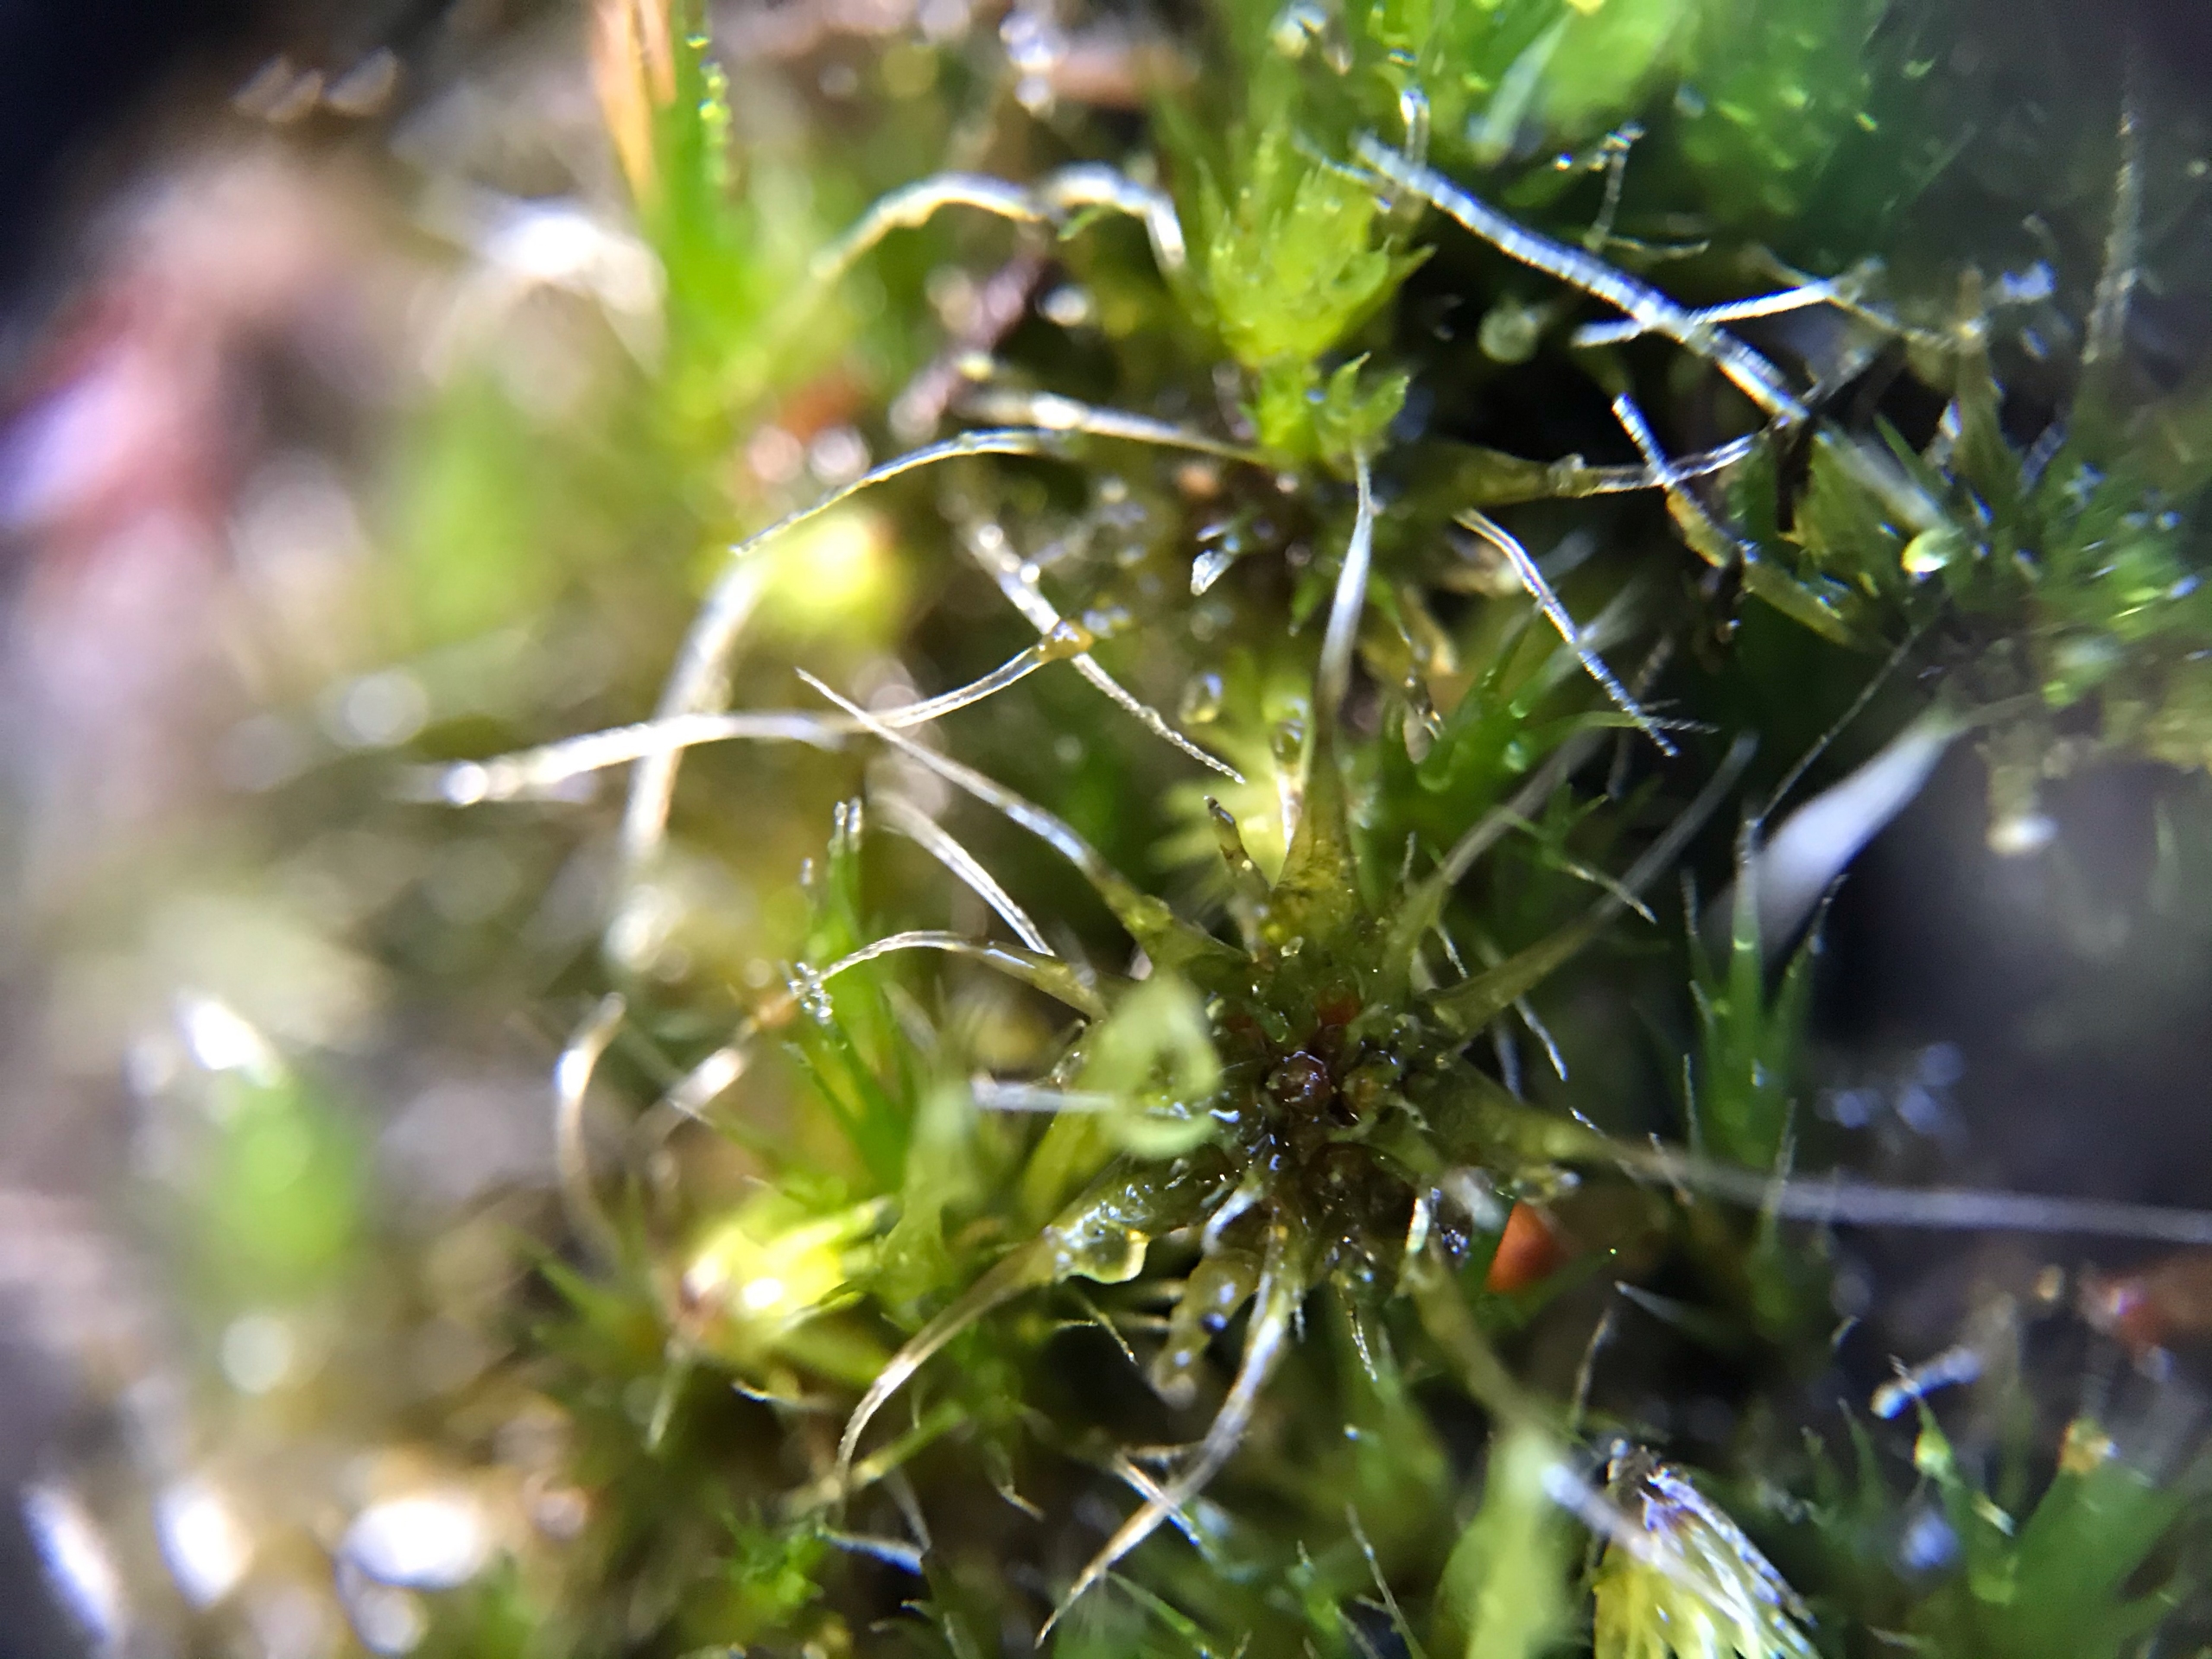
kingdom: Plantae
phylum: Bryophyta
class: Bryopsida
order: Dicranales
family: Leucobryaceae
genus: Campylopus
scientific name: Campylopus introflexus
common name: Stjerne-bredribbe
